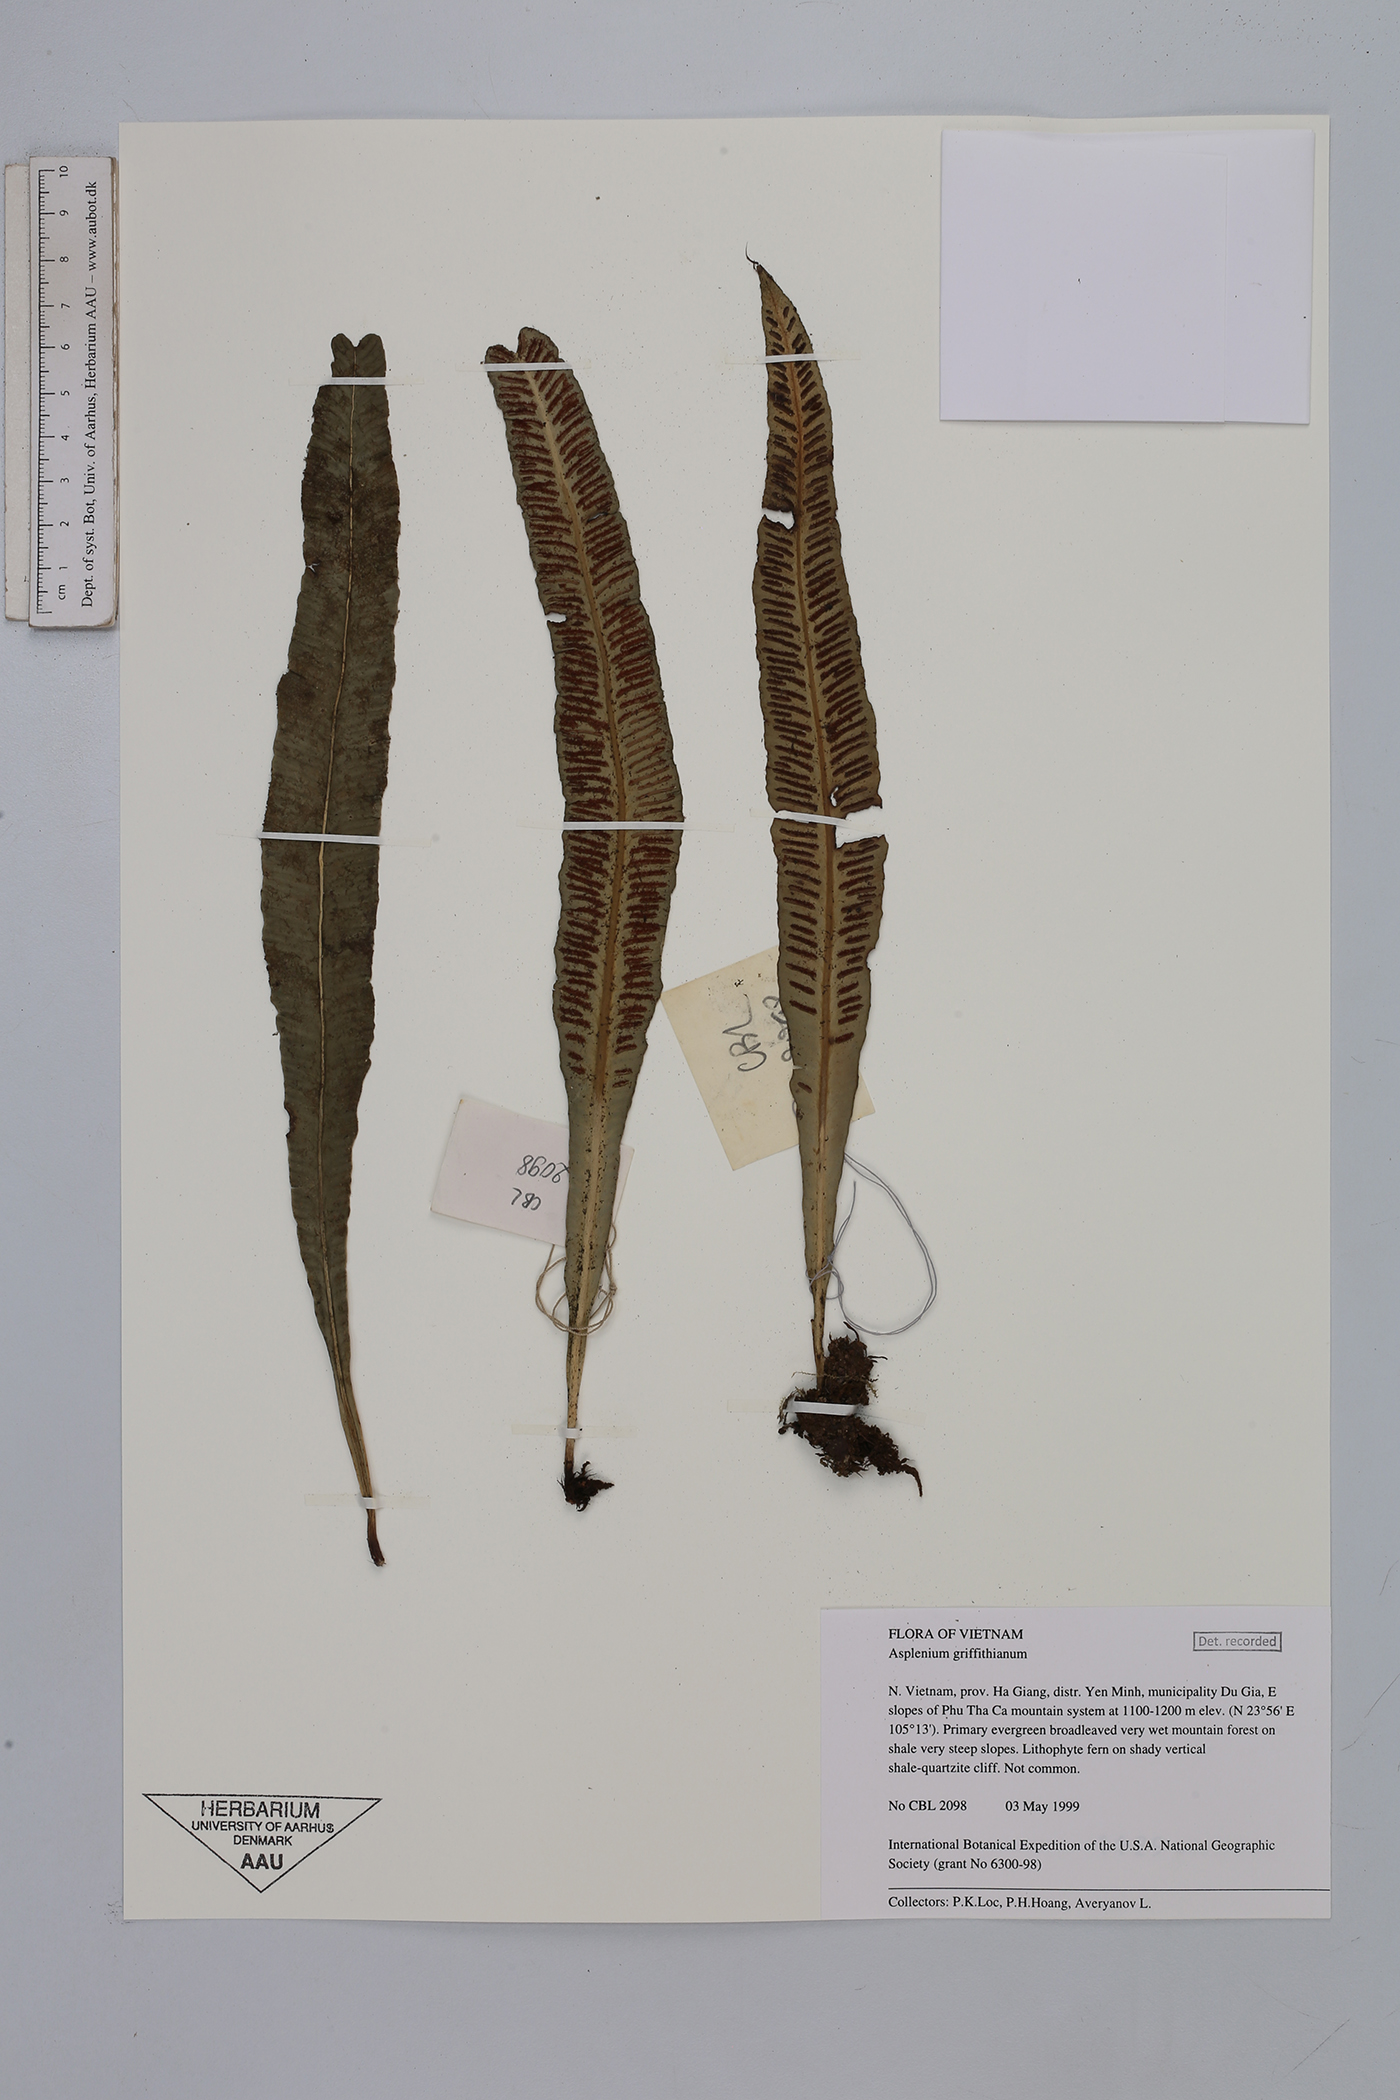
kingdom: Plantae
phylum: Tracheophyta
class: Polypodiopsida
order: Polypodiales
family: Aspleniaceae
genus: Asplenium
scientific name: Asplenium griffithianum
